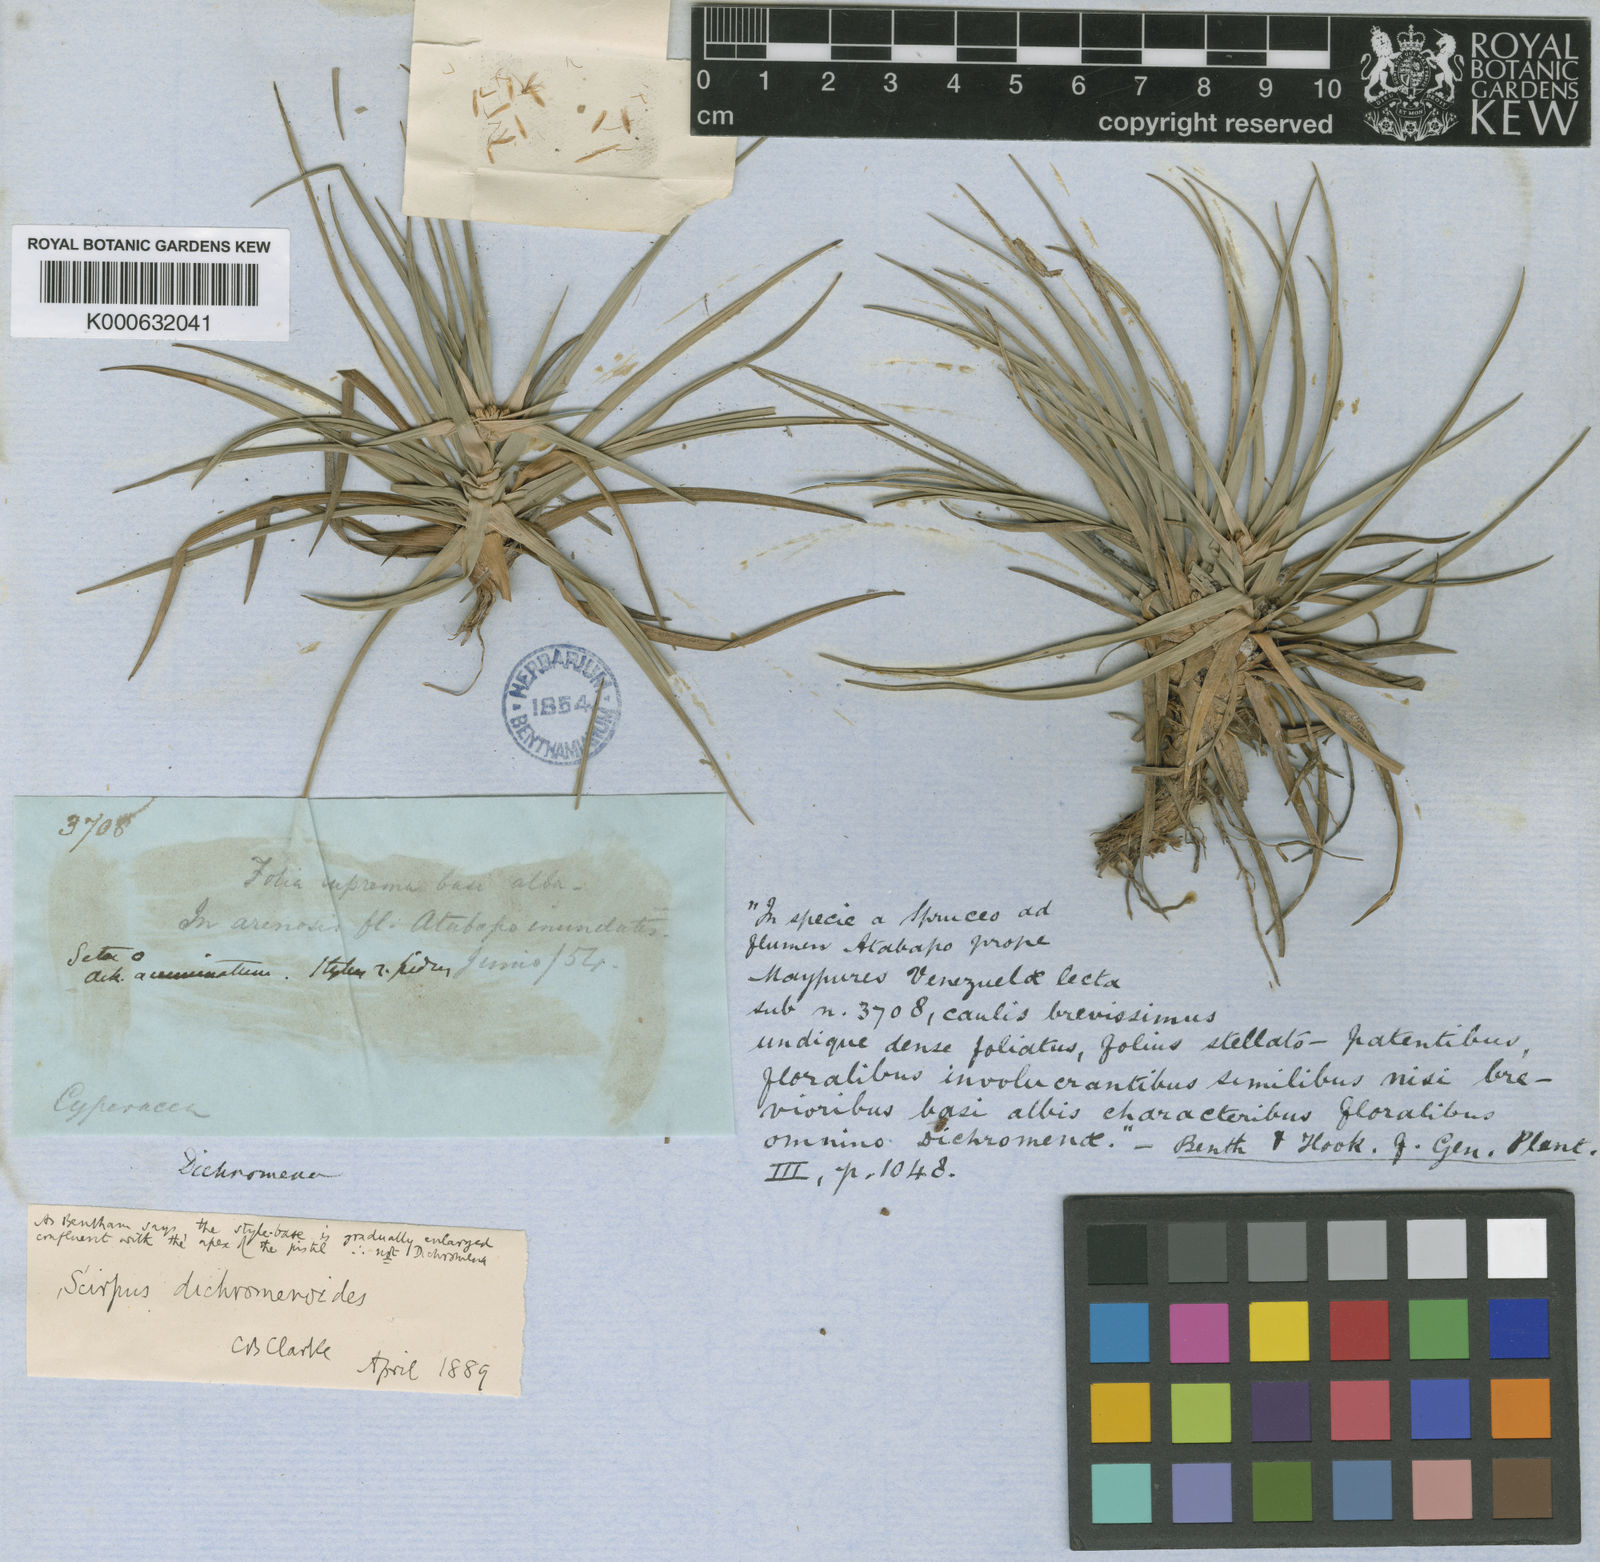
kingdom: Plantae
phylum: Tracheophyta
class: Liliopsida
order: Poales
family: Cyperaceae
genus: Isolepis
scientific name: Isolepis
